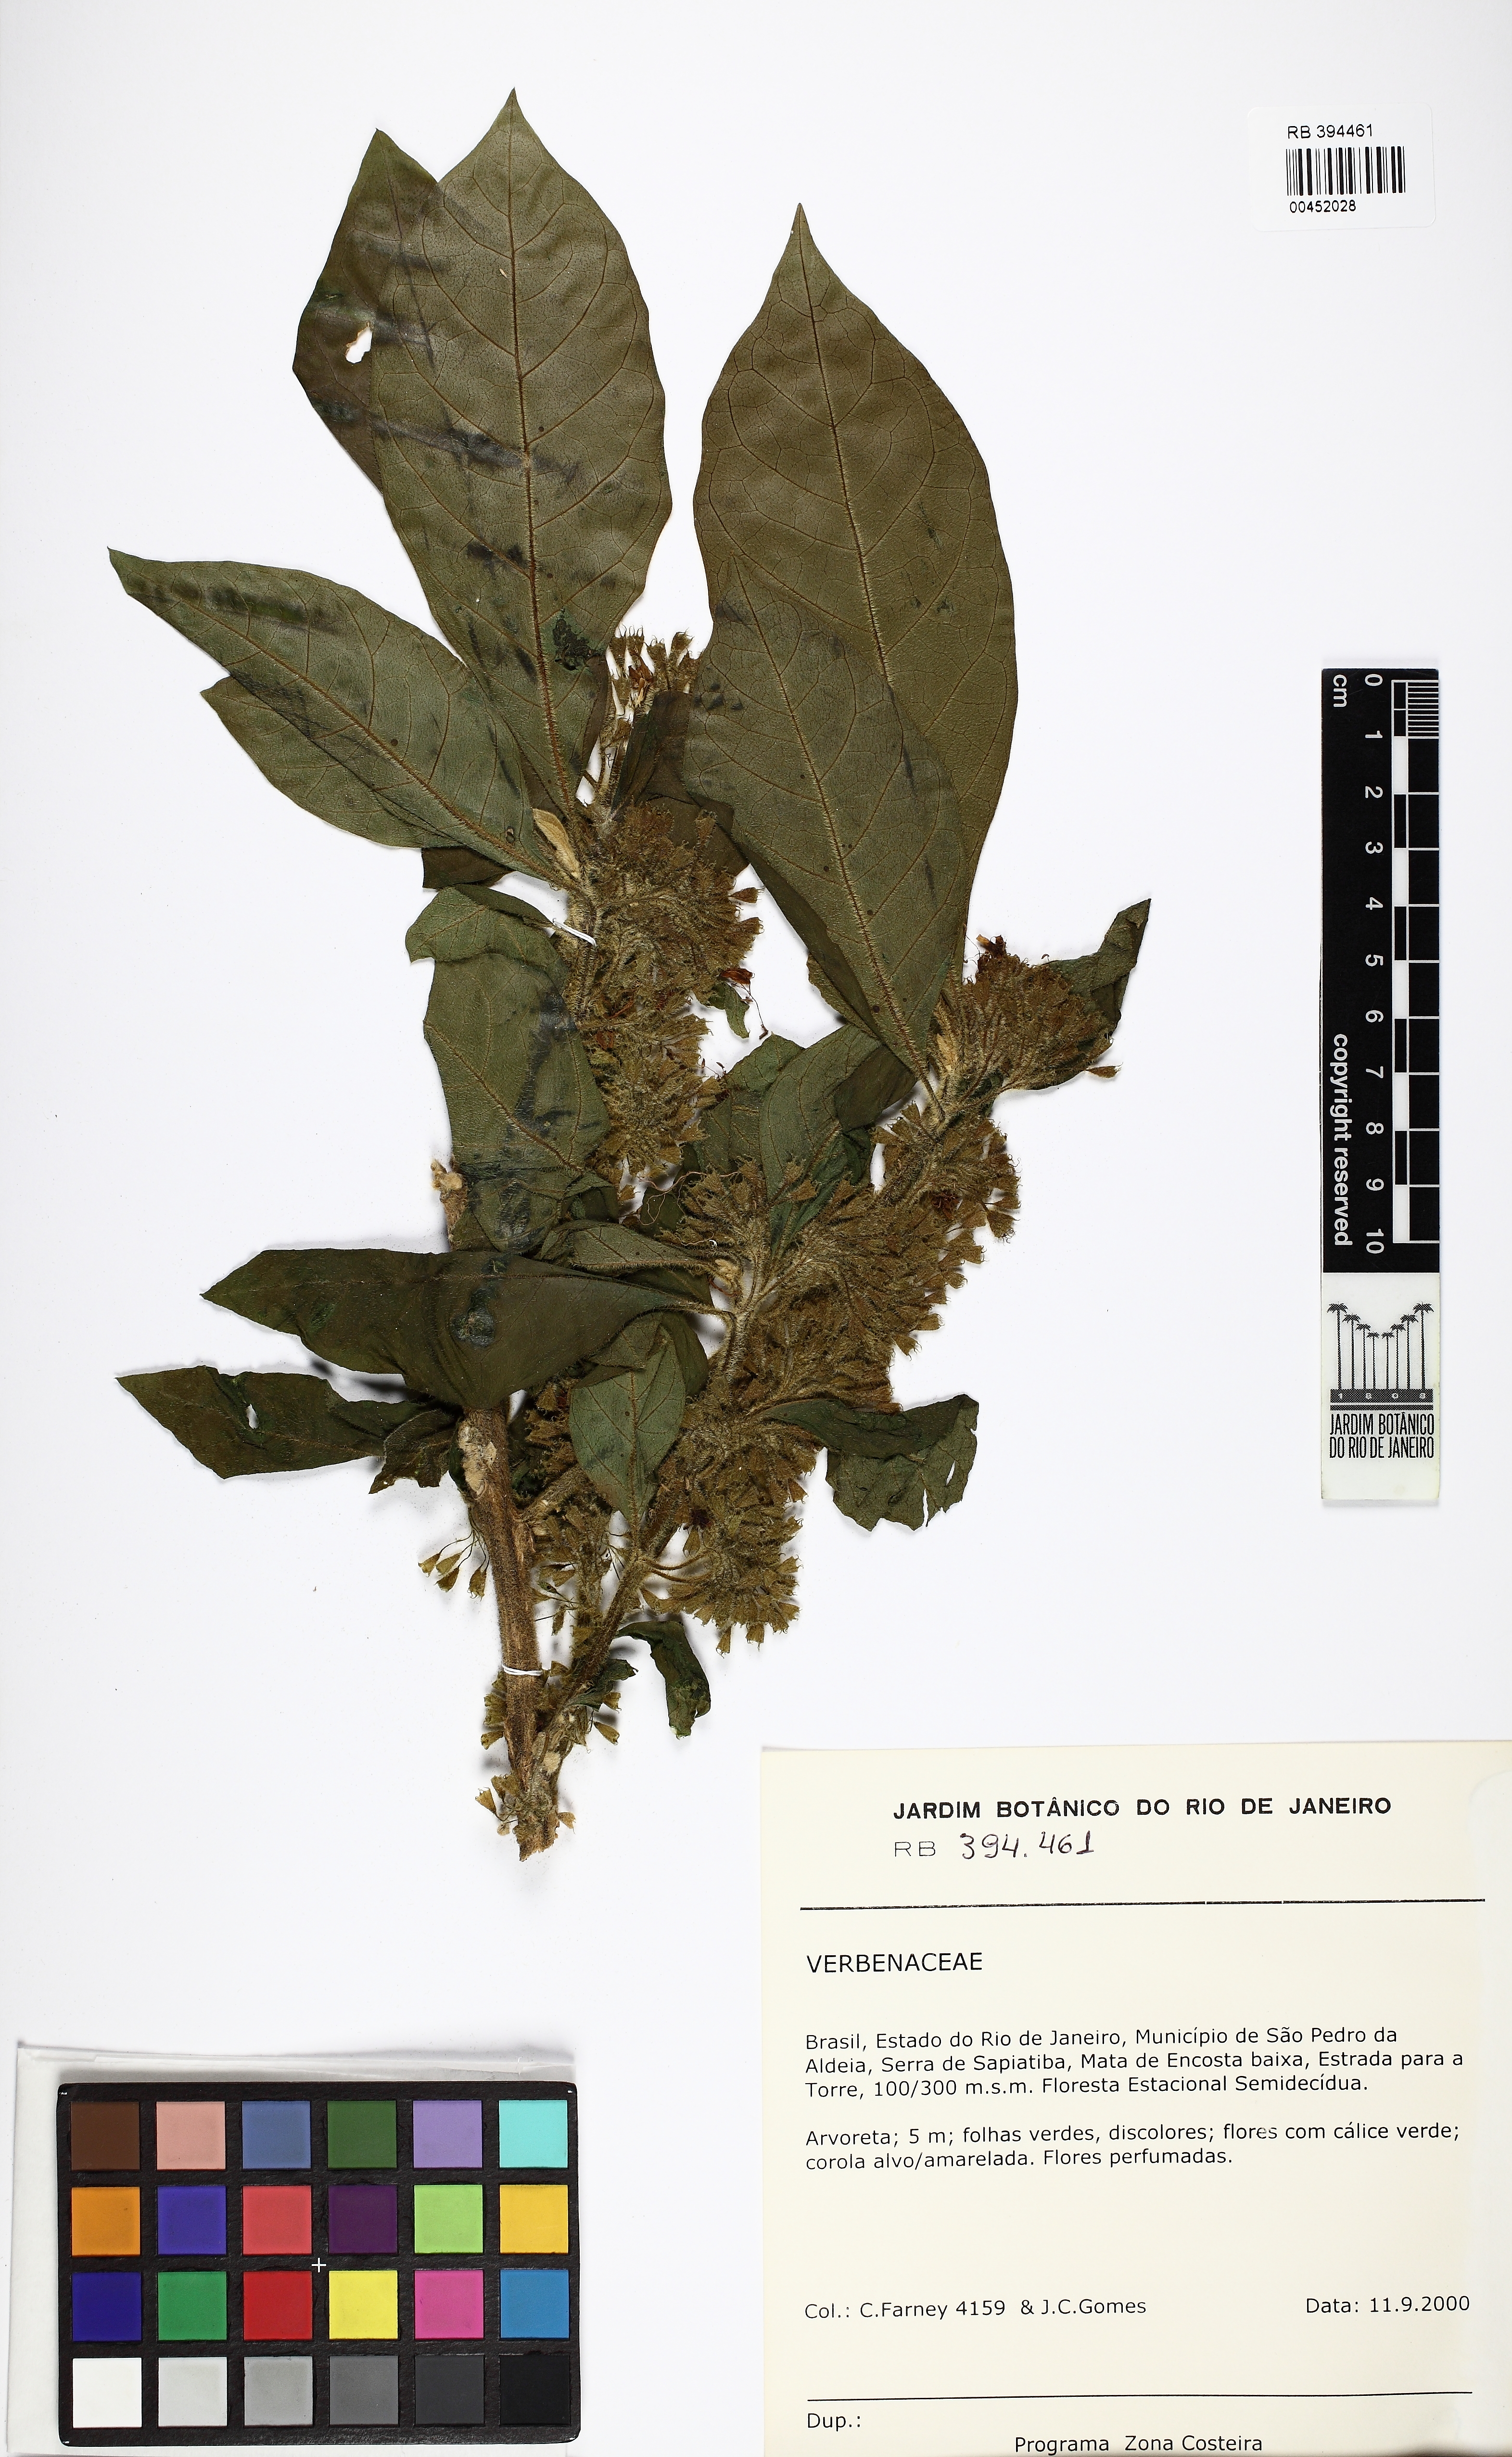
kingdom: Plantae
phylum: Tracheophyta
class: Magnoliopsida
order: Lamiales
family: Lamiaceae
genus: Aegiphila
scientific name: Aegiphila
